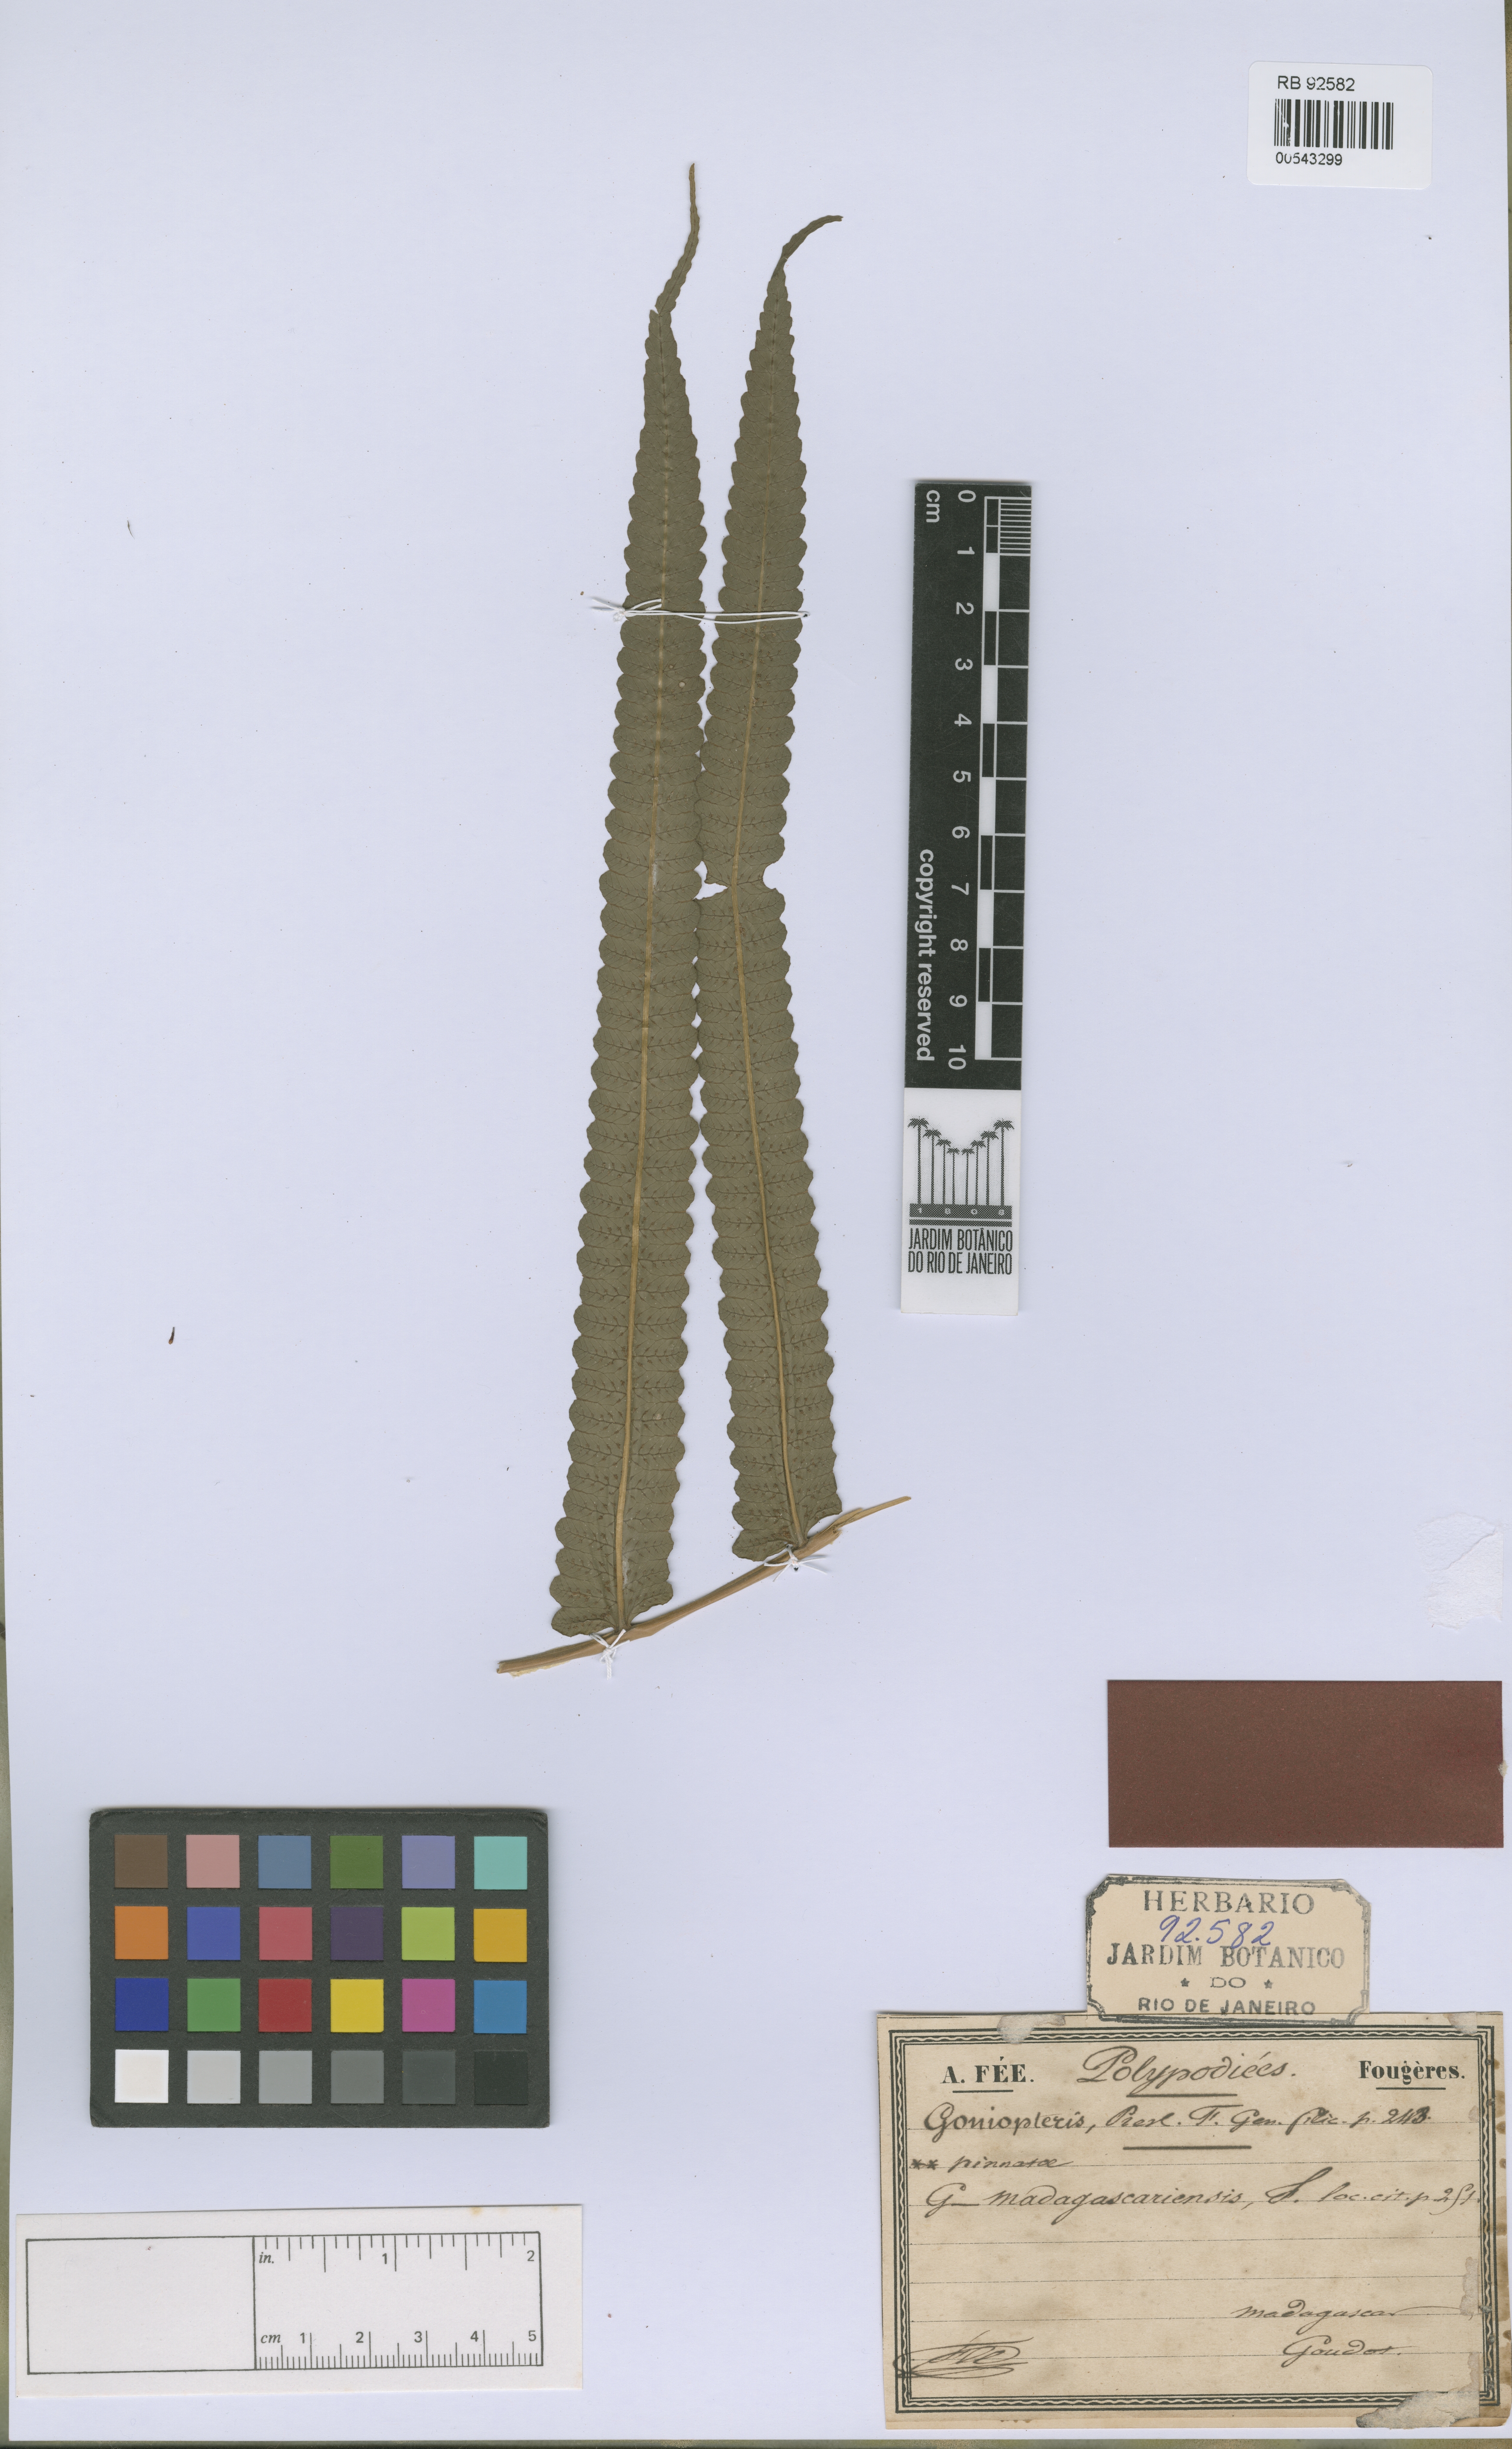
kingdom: Plantae
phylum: Tracheophyta
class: Polypodiopsida
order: Polypodiales
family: Thelypteridaceae
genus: Menisorus
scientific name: Menisorus unitus
